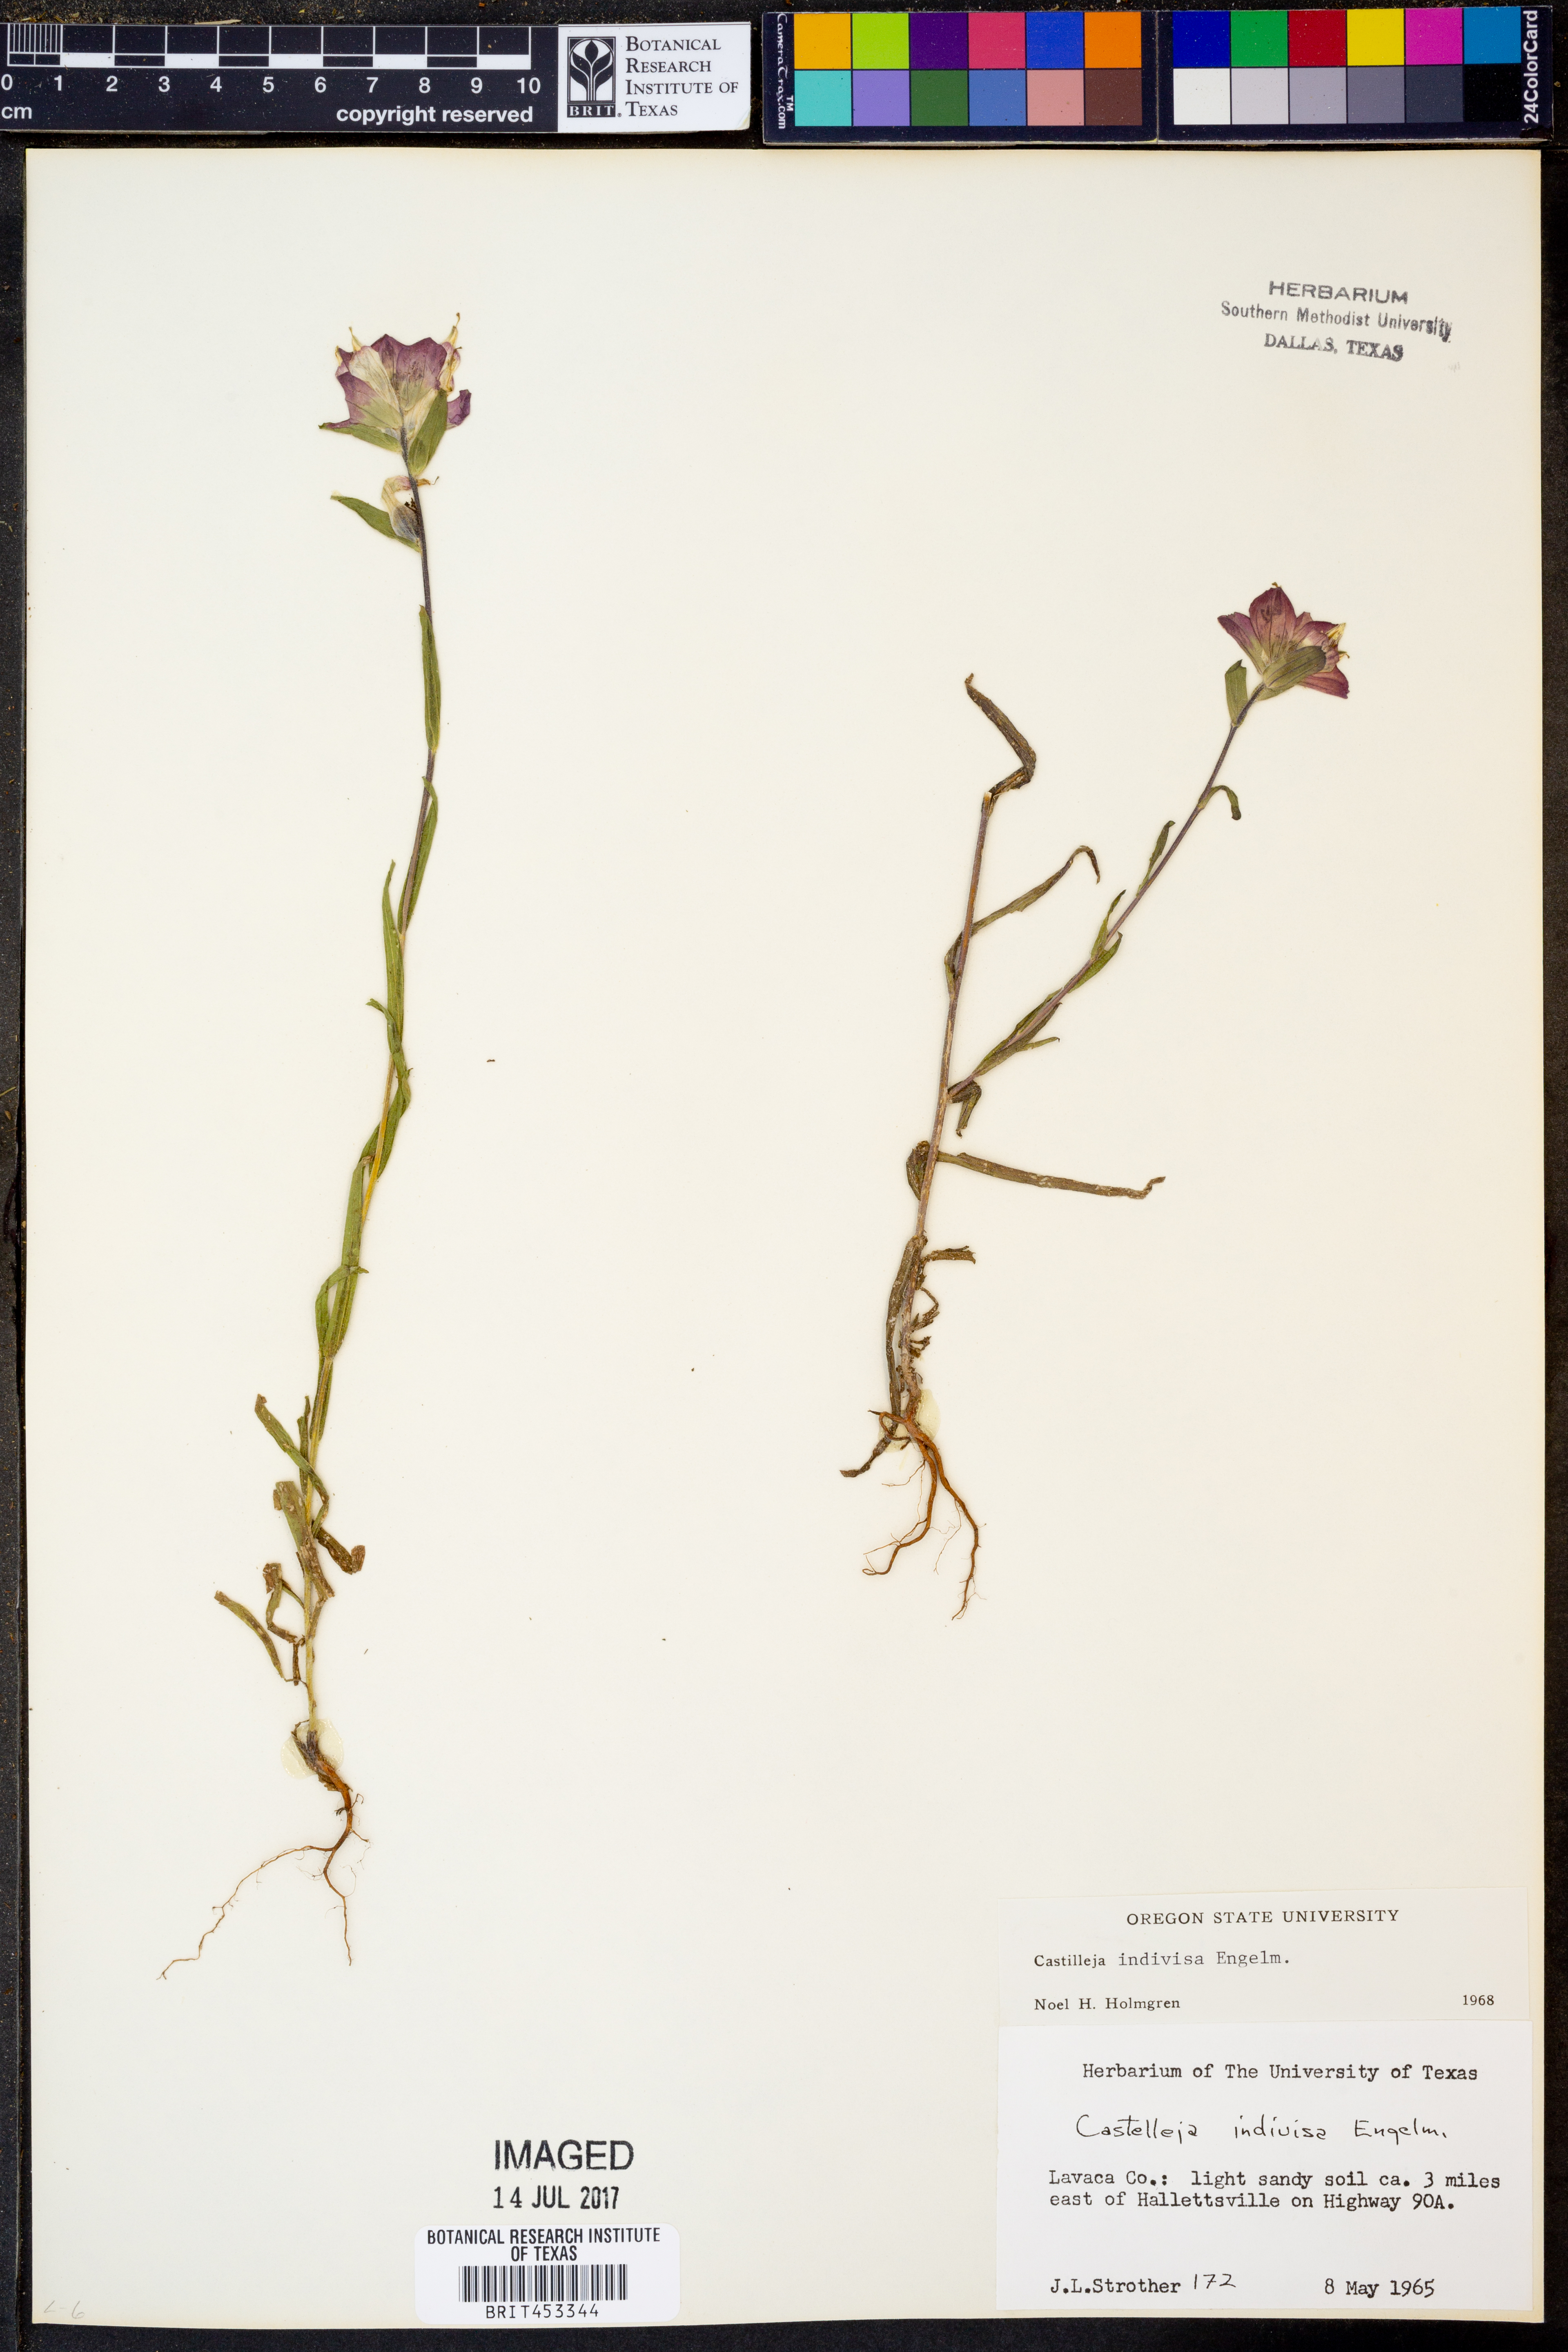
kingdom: Plantae
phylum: Tracheophyta
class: Magnoliopsida
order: Lamiales
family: Orobanchaceae
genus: Castilleja
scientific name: Castilleja indivisa
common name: Texas paintbrush
